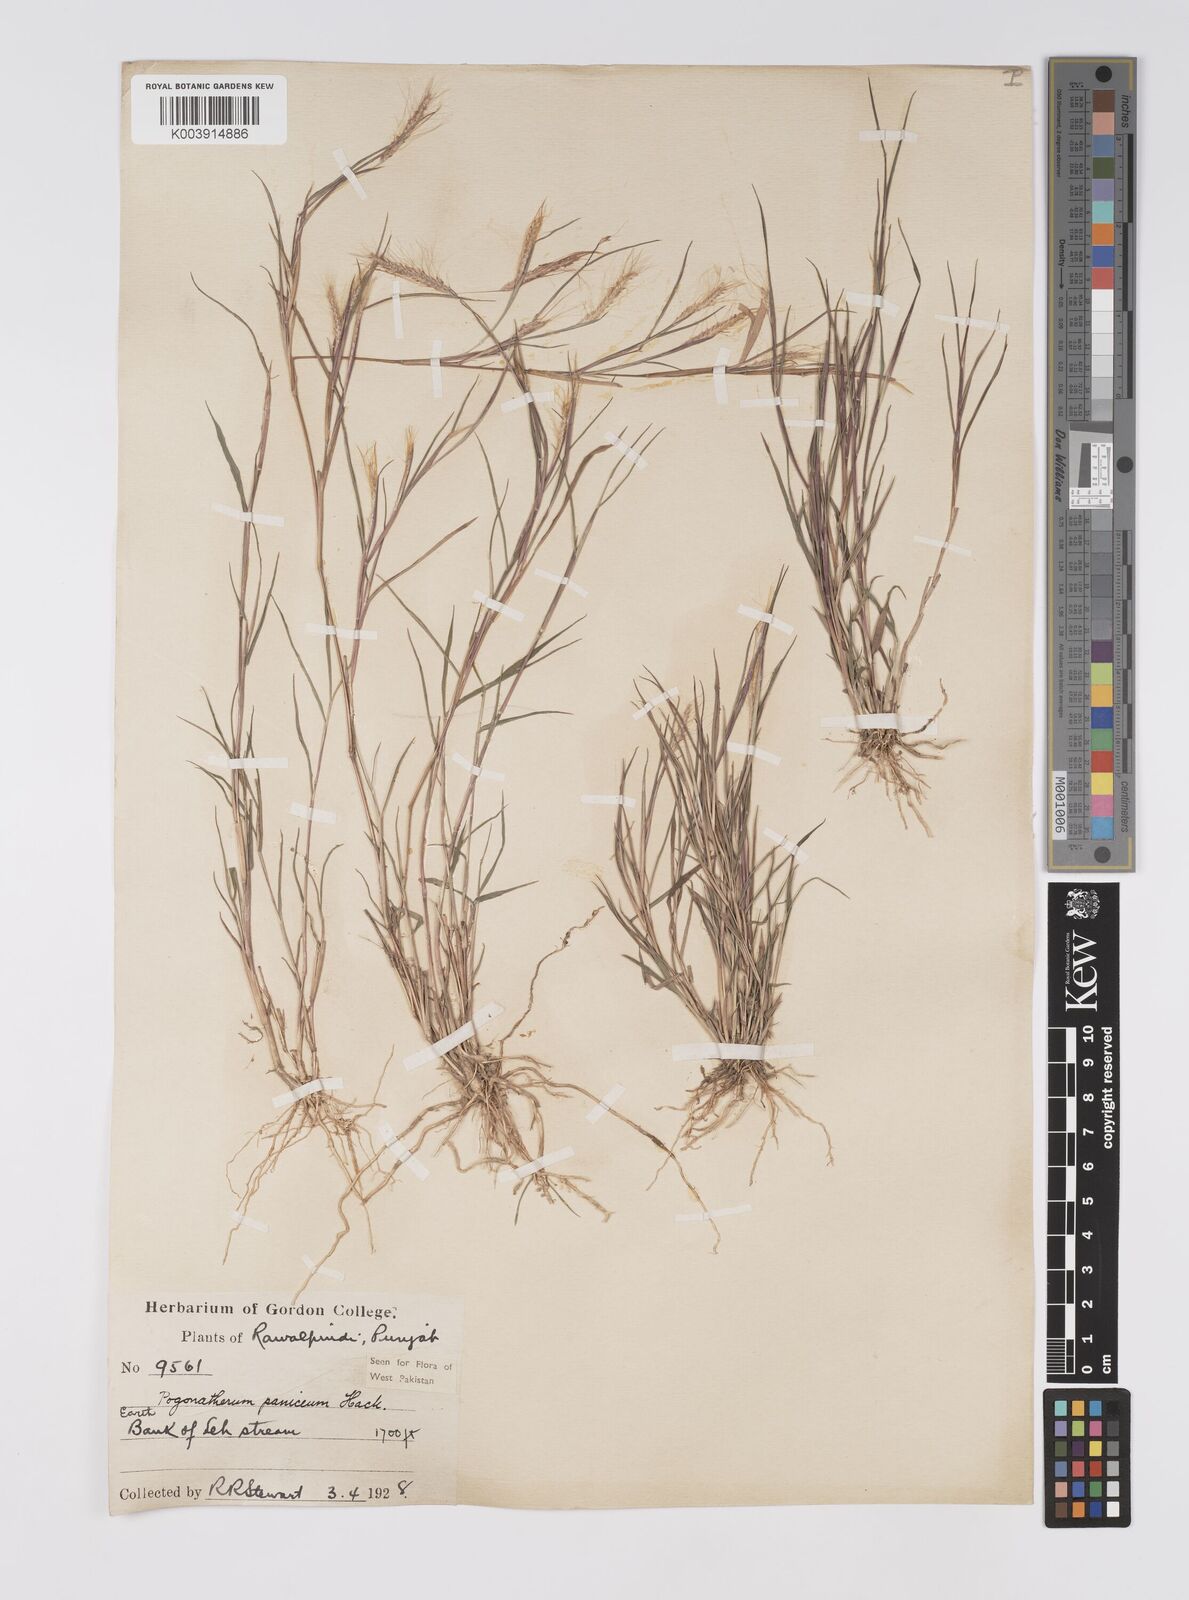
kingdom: Plantae
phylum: Tracheophyta
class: Liliopsida
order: Poales
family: Poaceae
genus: Pogonatherum
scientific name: Pogonatherum paniceum
